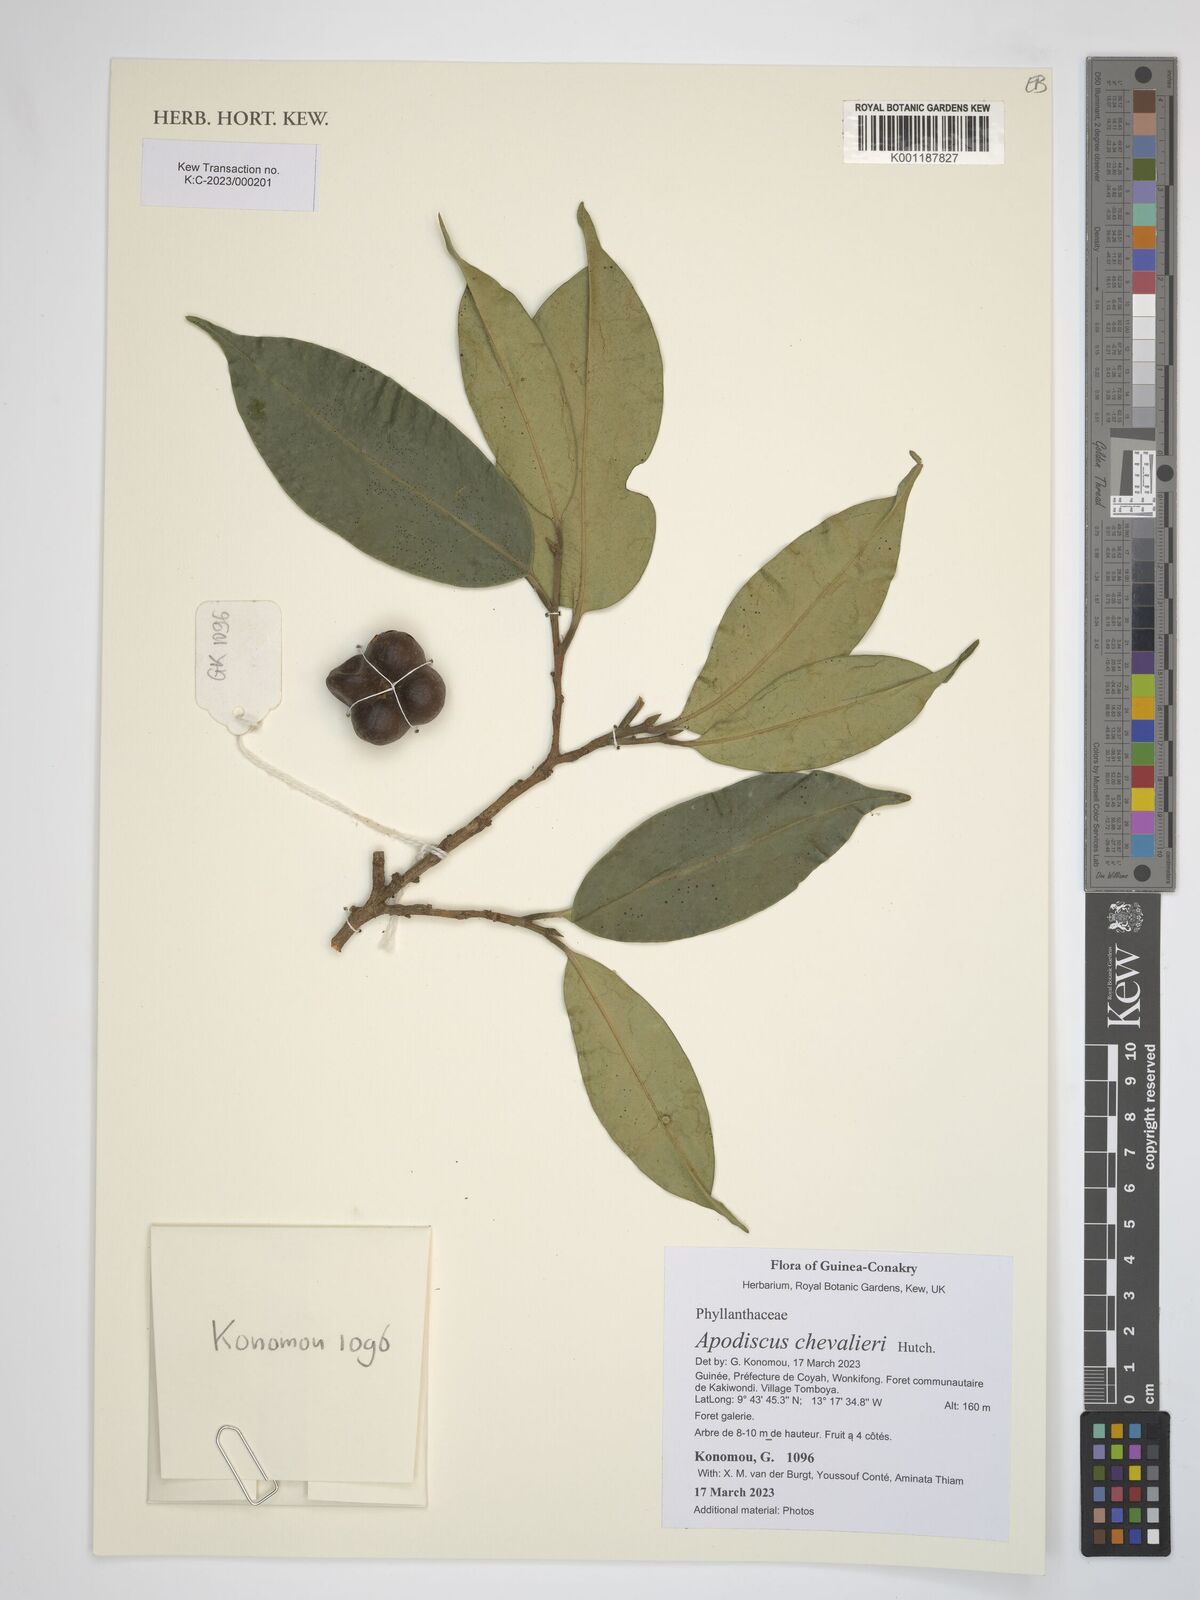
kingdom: Plantae
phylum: Tracheophyta
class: Magnoliopsida
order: Malpighiales
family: Phyllanthaceae
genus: Apodiscus
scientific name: Apodiscus chevalieri
